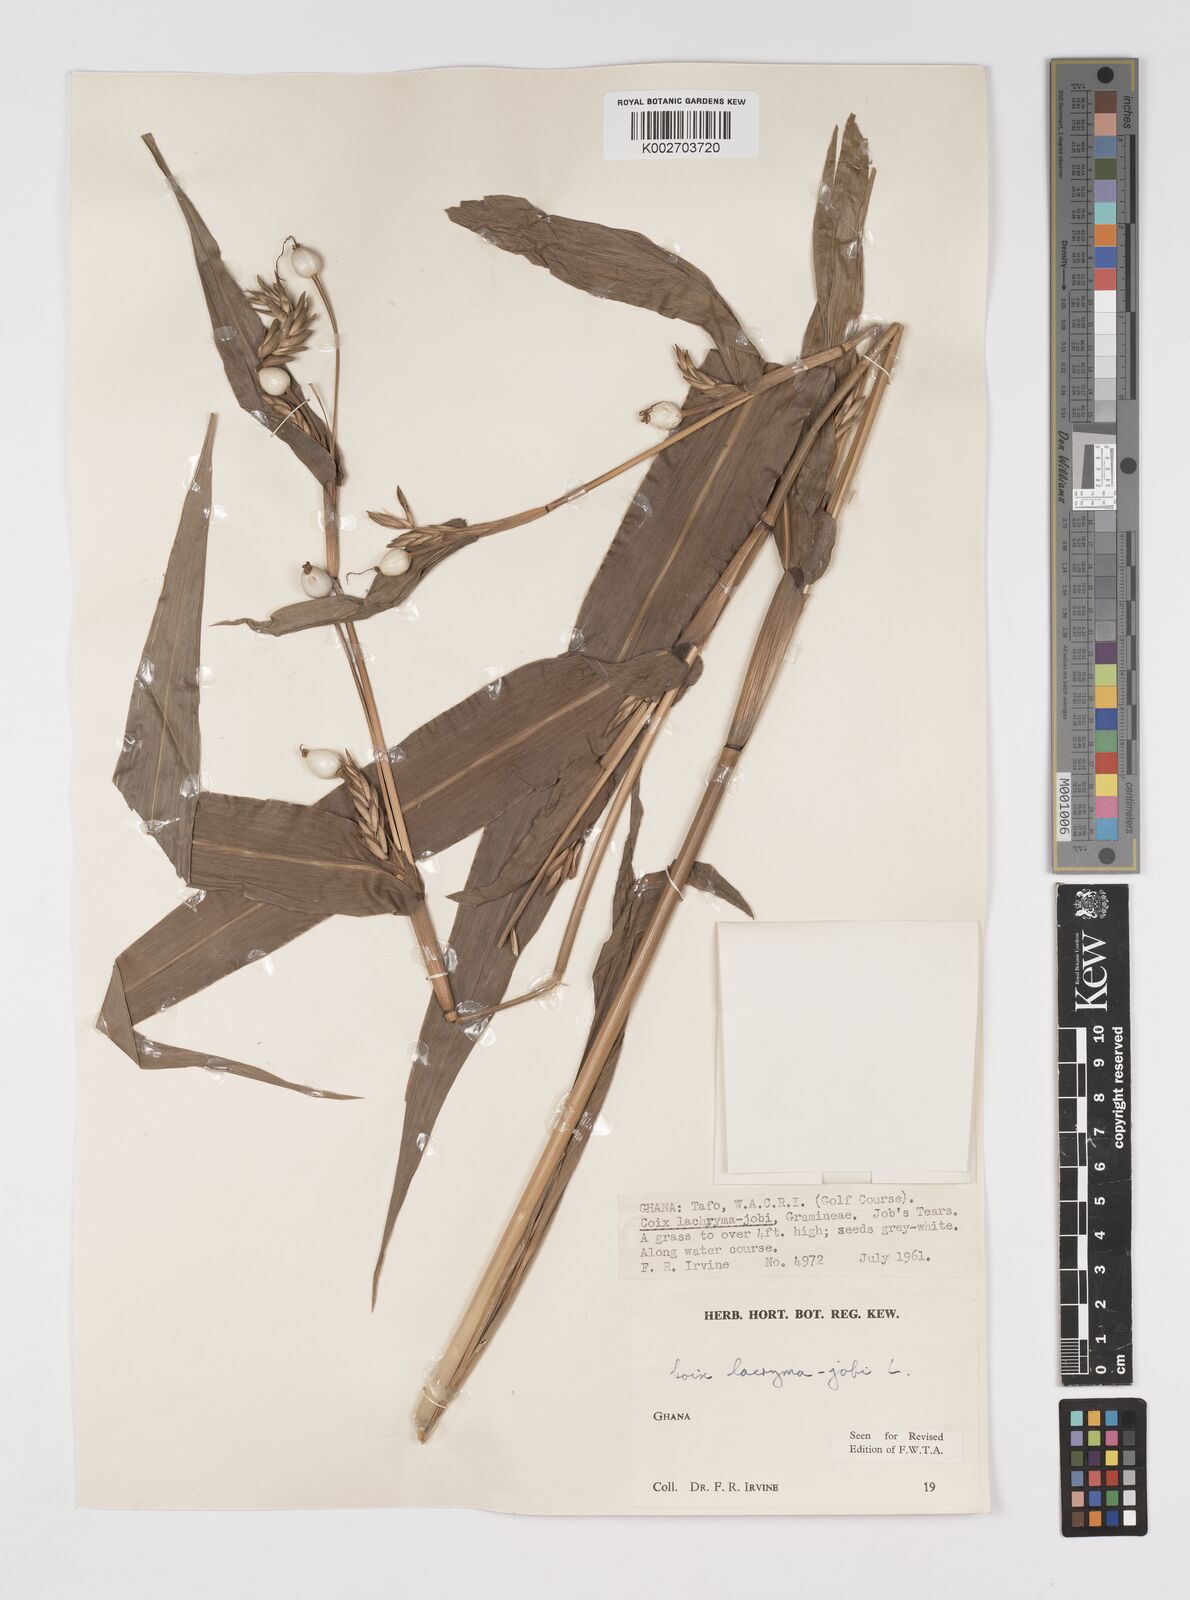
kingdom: Plantae
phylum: Tracheophyta
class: Liliopsida
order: Poales
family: Poaceae
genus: Coix
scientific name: Coix lacryma-jobi
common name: Job's tears
